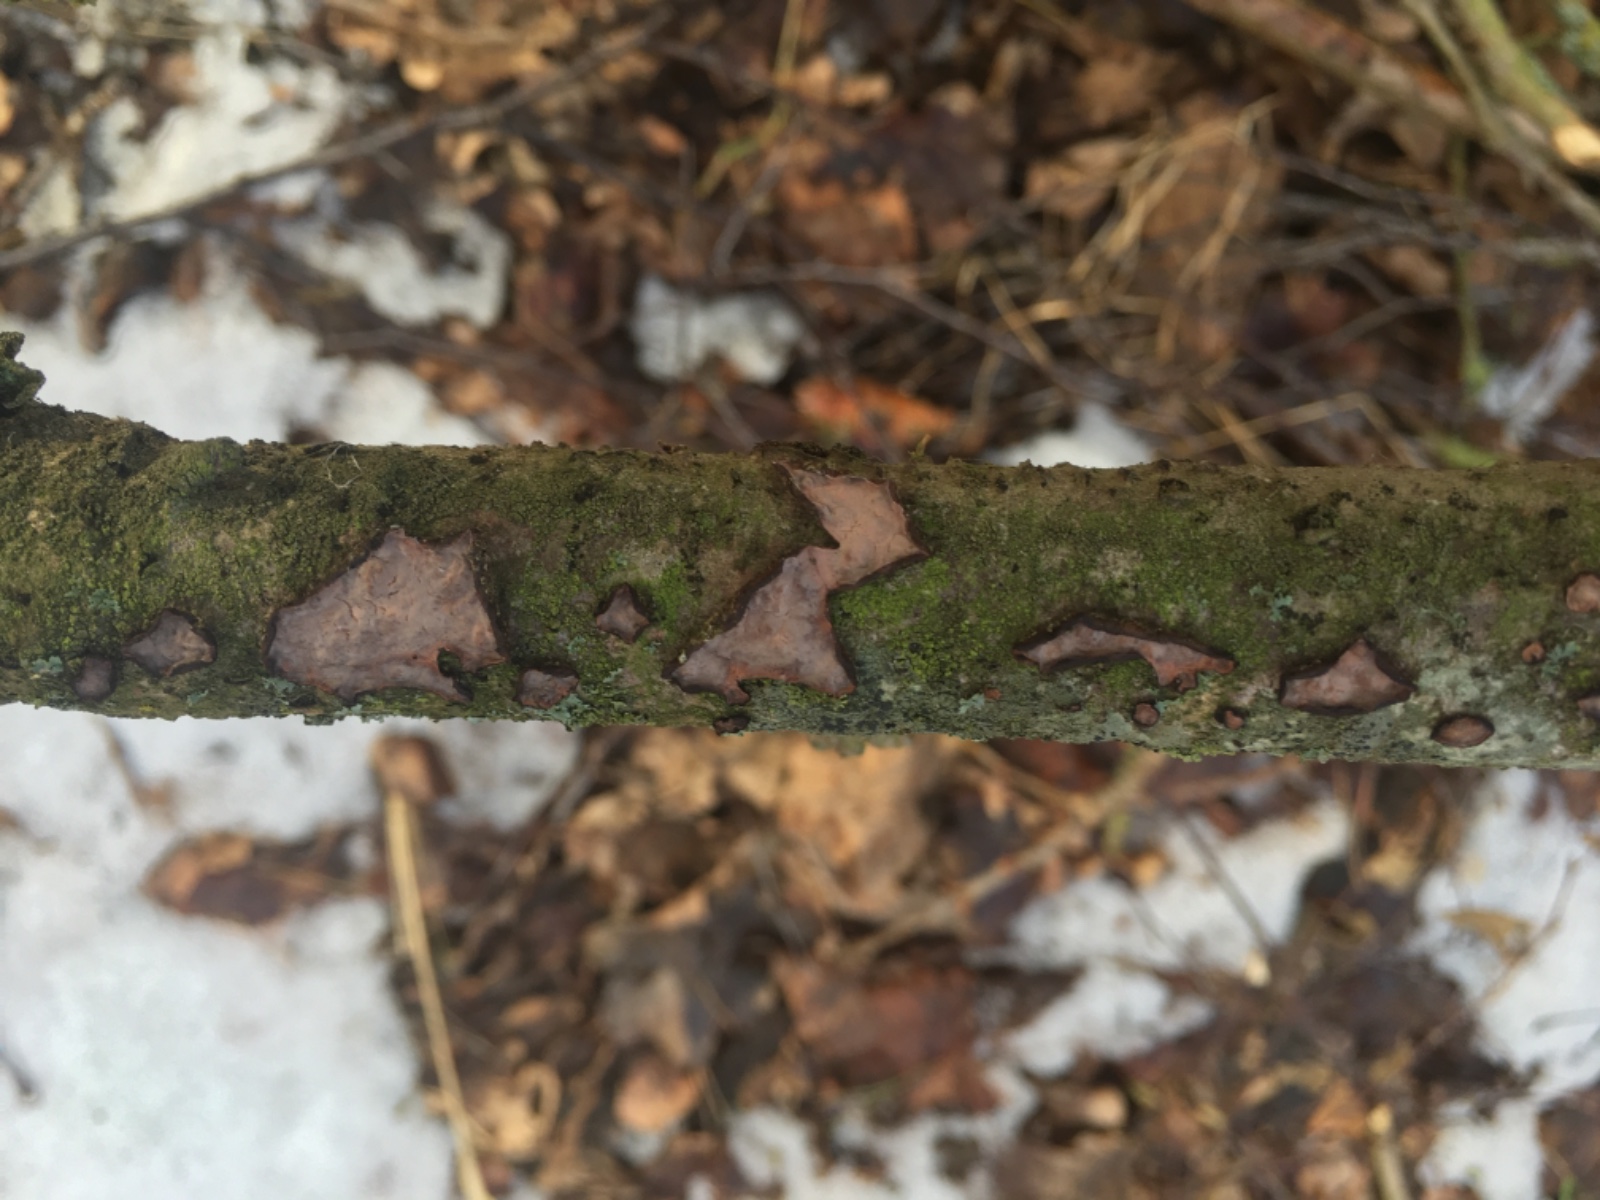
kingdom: Fungi
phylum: Basidiomycota
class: Agaricomycetes
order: Russulales
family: Peniophoraceae
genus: Peniophora
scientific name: Peniophora quercina
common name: ege-voksskind
